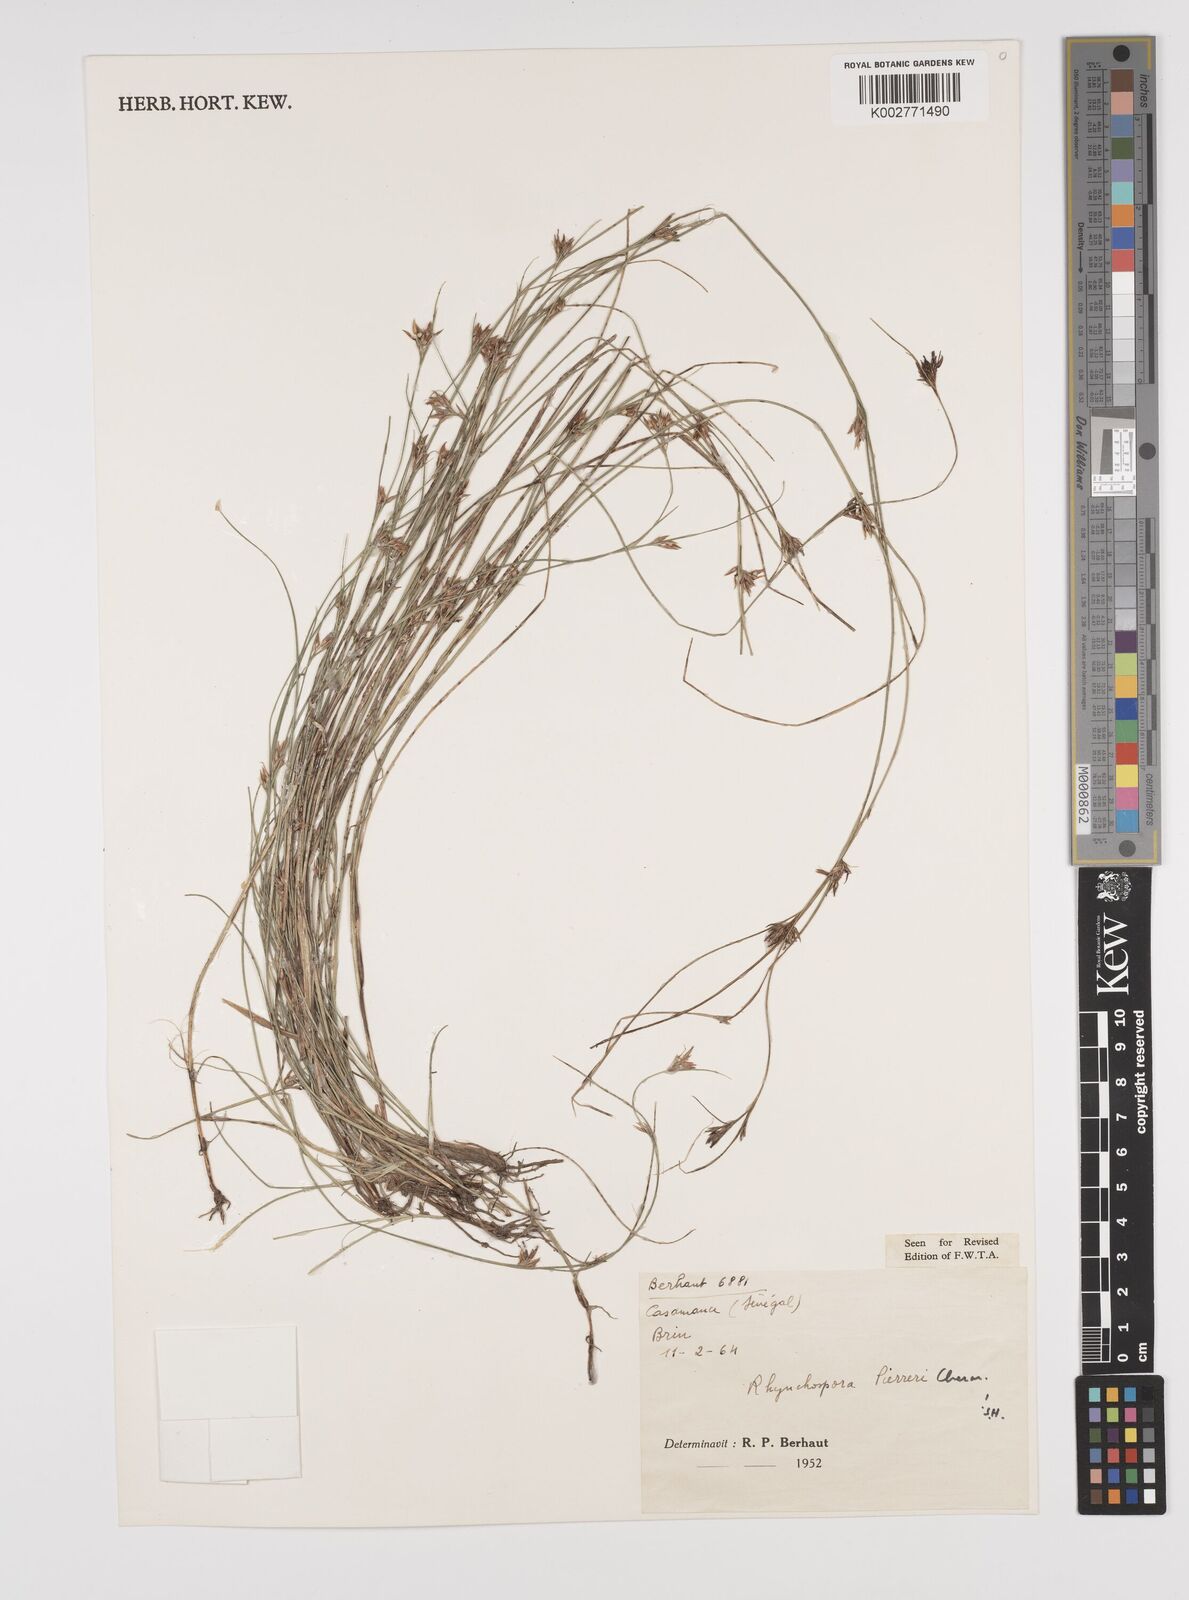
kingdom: Plantae
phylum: Tracheophyta
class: Liliopsida
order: Poales
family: Cyperaceae
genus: Rhynchospora
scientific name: Rhynchospora perrieri
